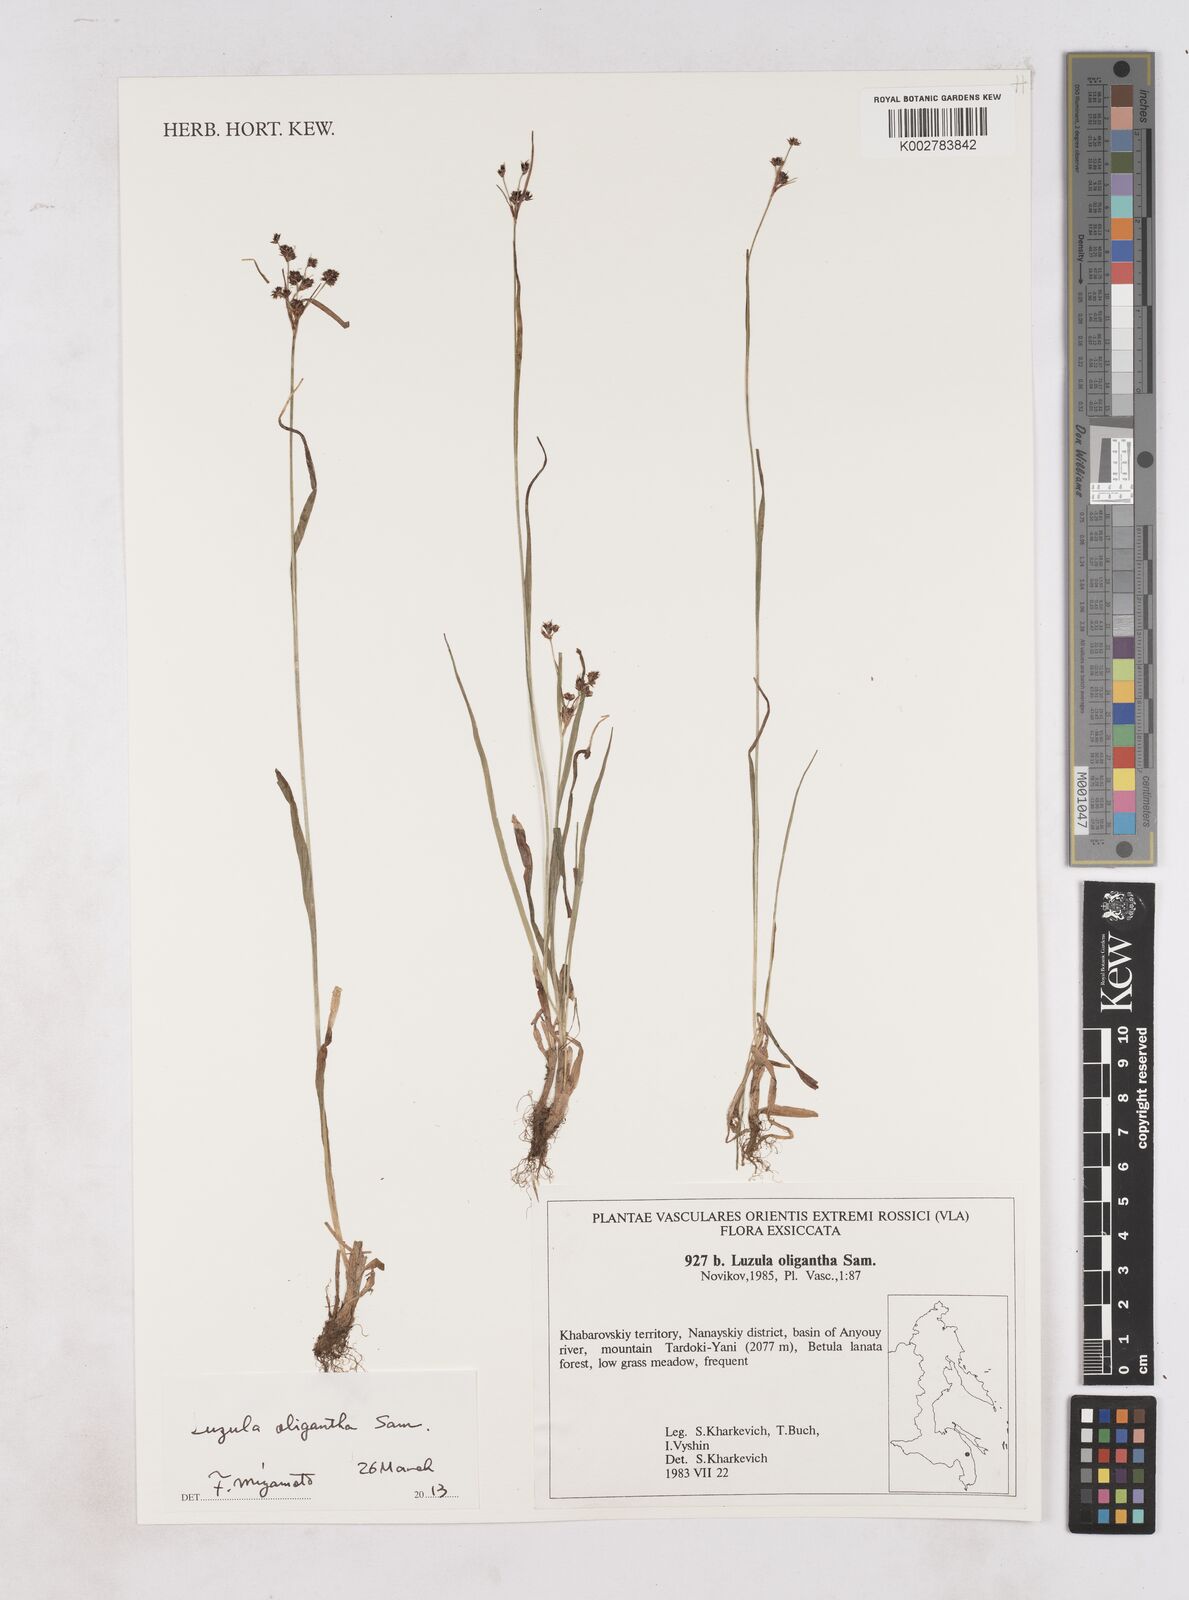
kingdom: Plantae
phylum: Tracheophyta
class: Liliopsida
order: Poales
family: Juncaceae
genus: Luzula
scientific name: Luzula oligantha
